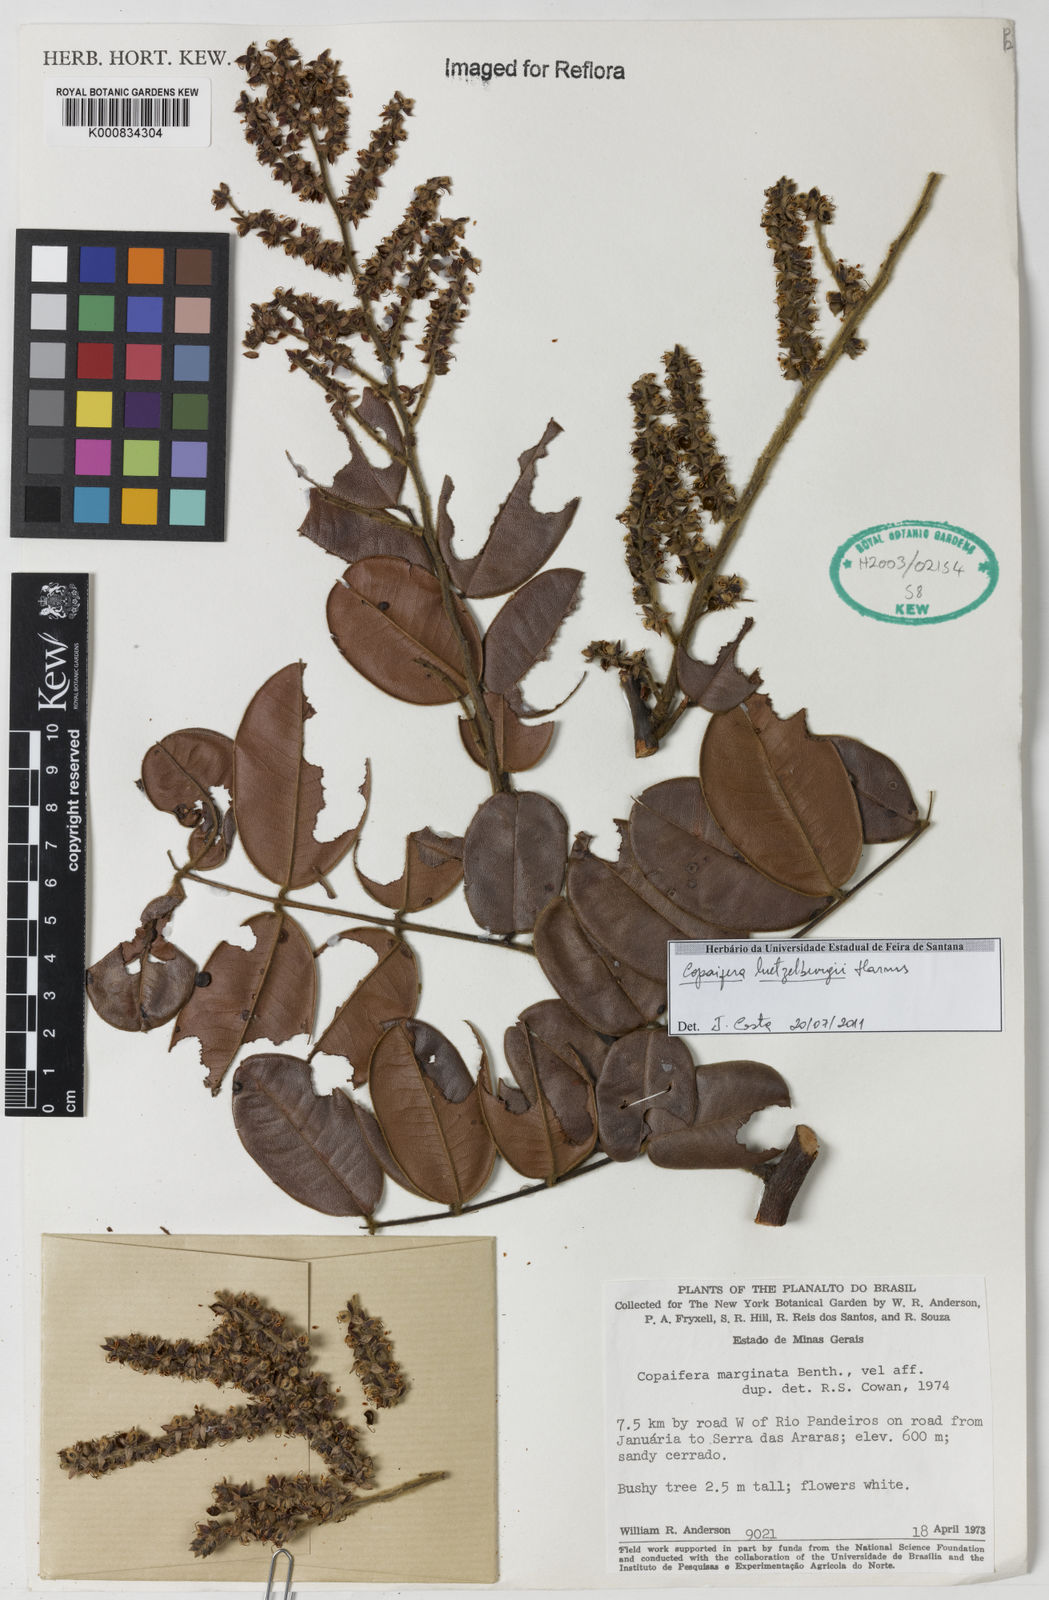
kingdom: Plantae
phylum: Tracheophyta
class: Magnoliopsida
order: Fabales
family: Fabaceae
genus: Copaifera
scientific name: Copaifera luetzelburgii
